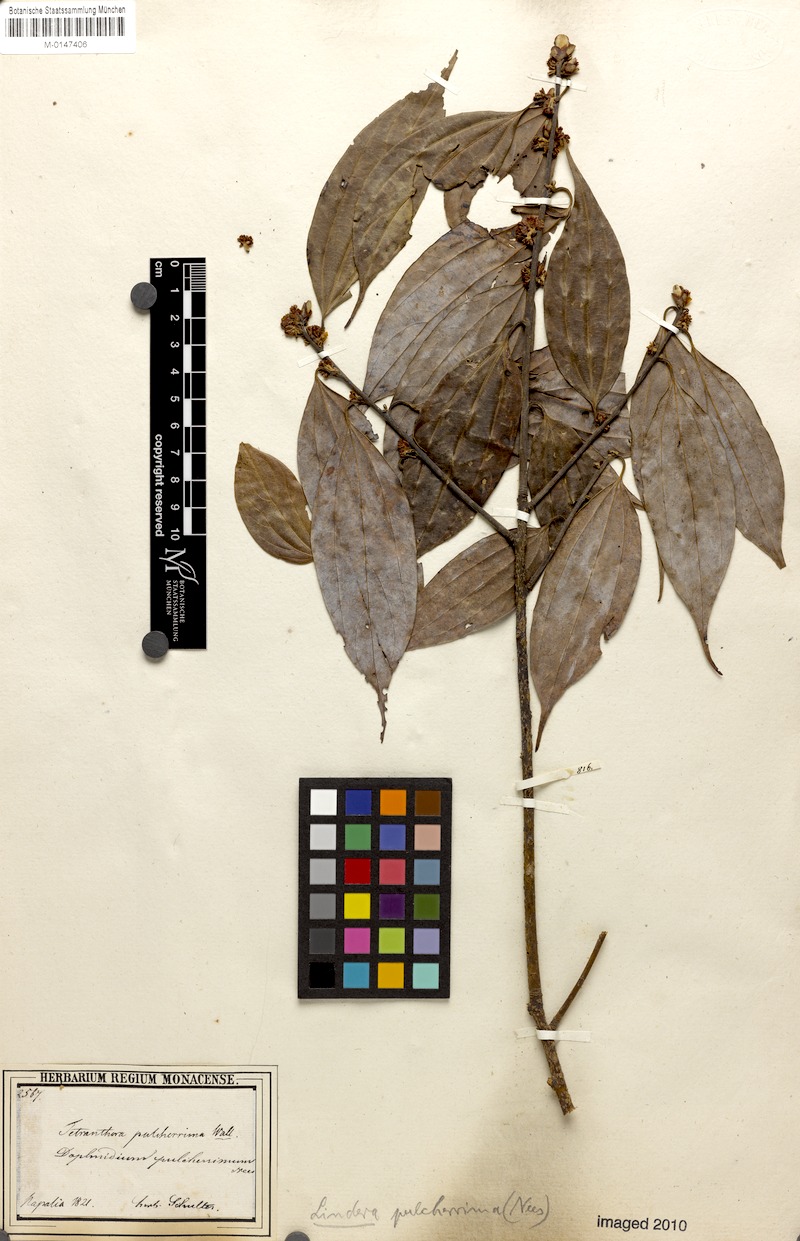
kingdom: Plantae
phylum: Tracheophyta
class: Magnoliopsida
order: Laurales
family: Lauraceae
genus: Lindera
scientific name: Lindera pulcherrima
